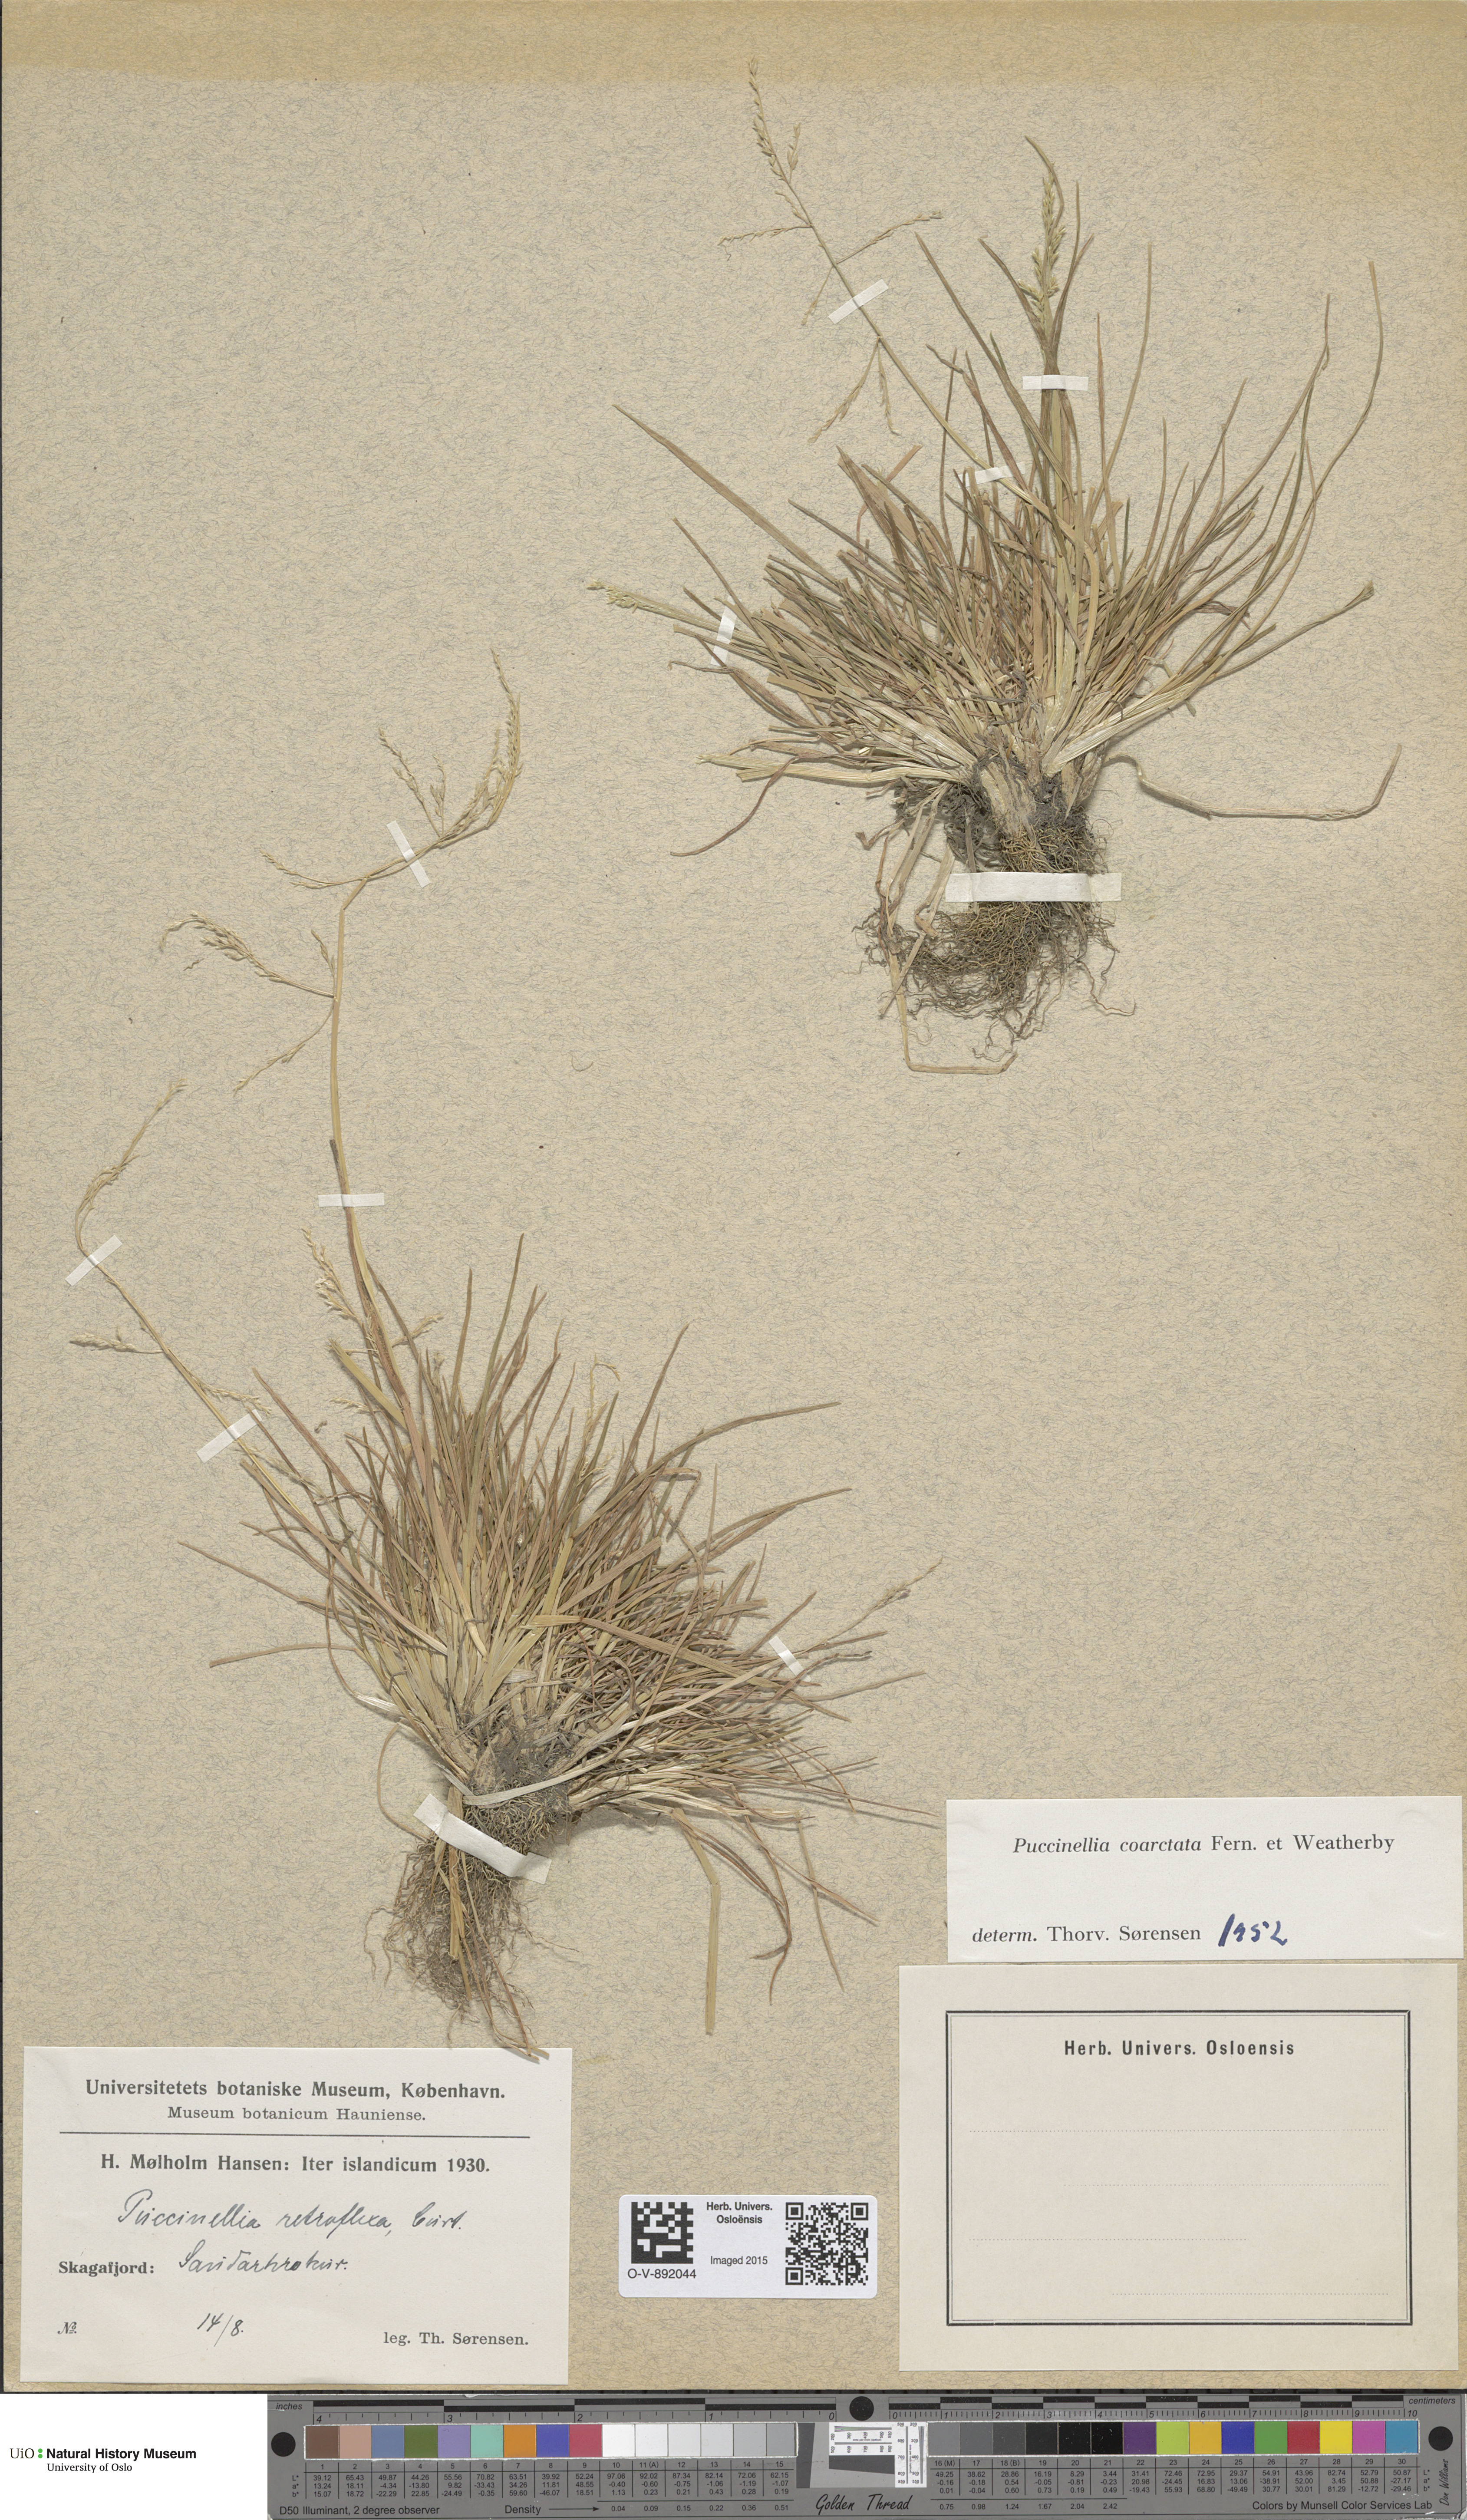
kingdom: Plantae
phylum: Tracheophyta
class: Liliopsida
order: Poales
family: Poaceae
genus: Puccinellia
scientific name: Puccinellia distans
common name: Weeping alkaligrass
